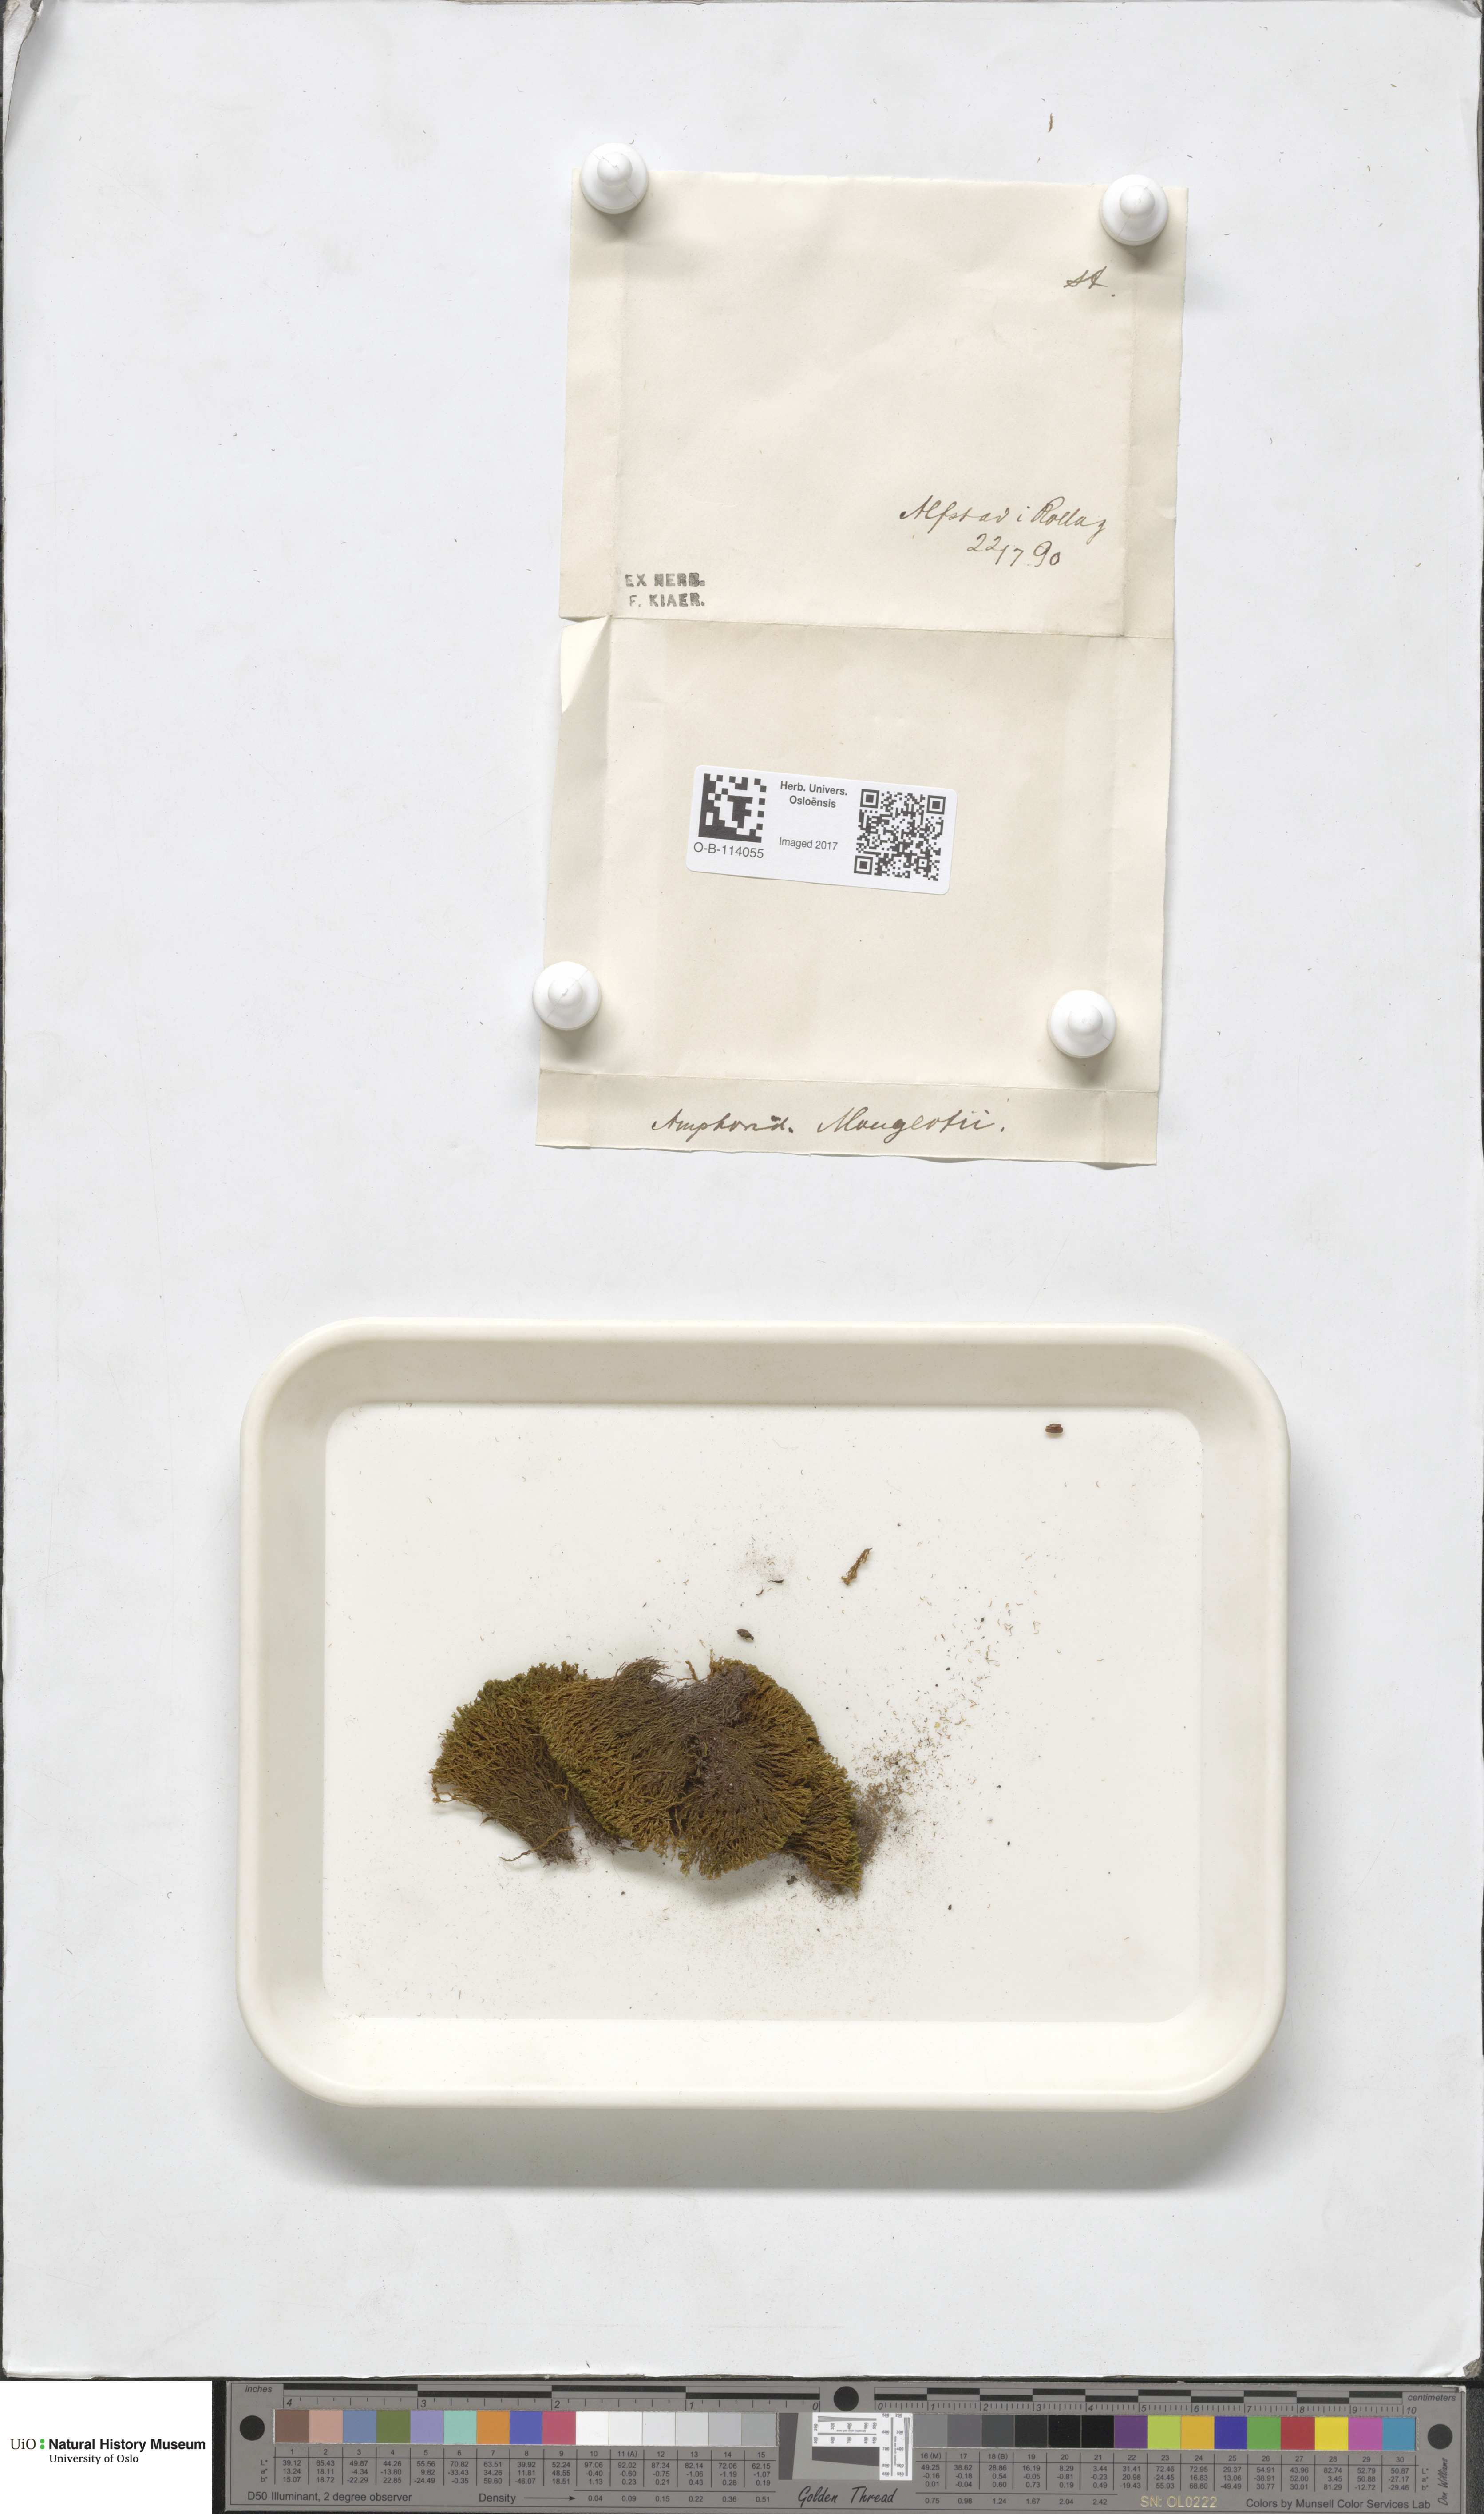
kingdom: Plantae
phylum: Bryophyta
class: Bryopsida
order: Dicranales
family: Amphidiaceae
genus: Amphidium
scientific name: Amphidium mougeotii
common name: Mougeot's yoke moss
